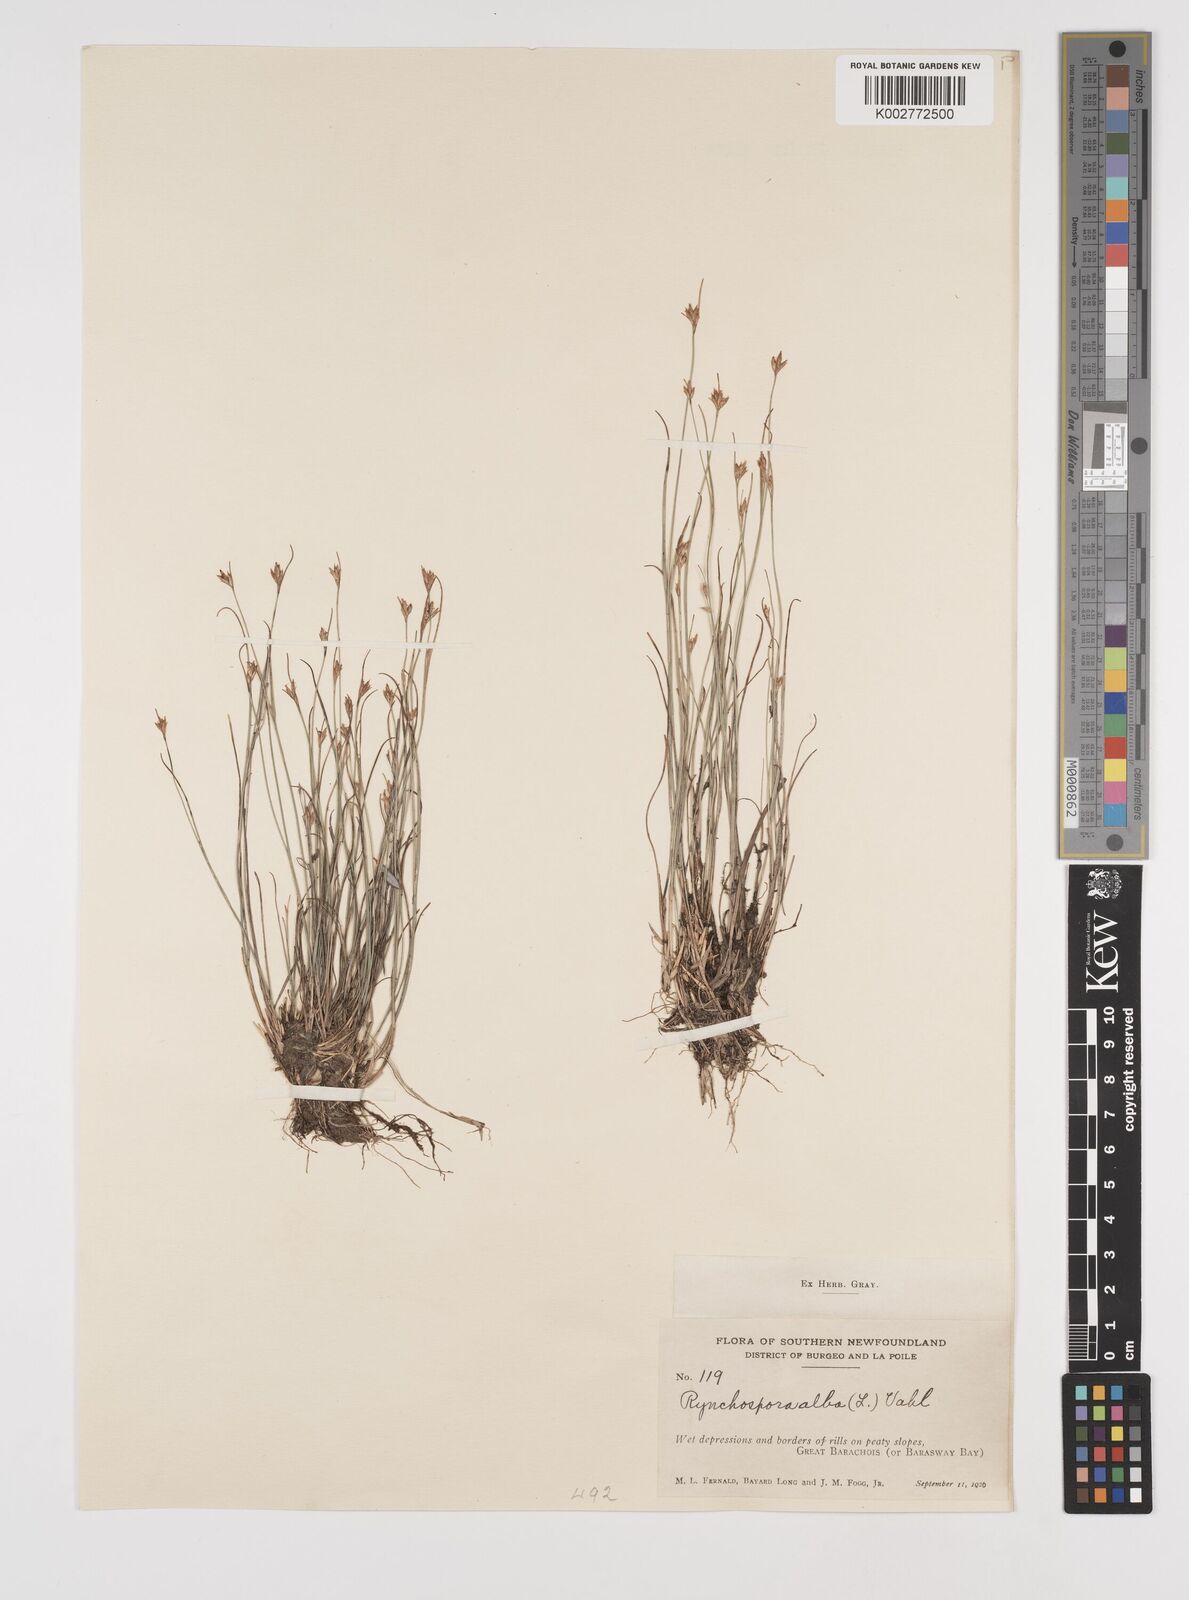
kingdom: Plantae
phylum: Tracheophyta
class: Liliopsida
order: Poales
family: Cyperaceae
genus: Rhynchospora
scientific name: Rhynchospora alba
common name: White beak-sedge
